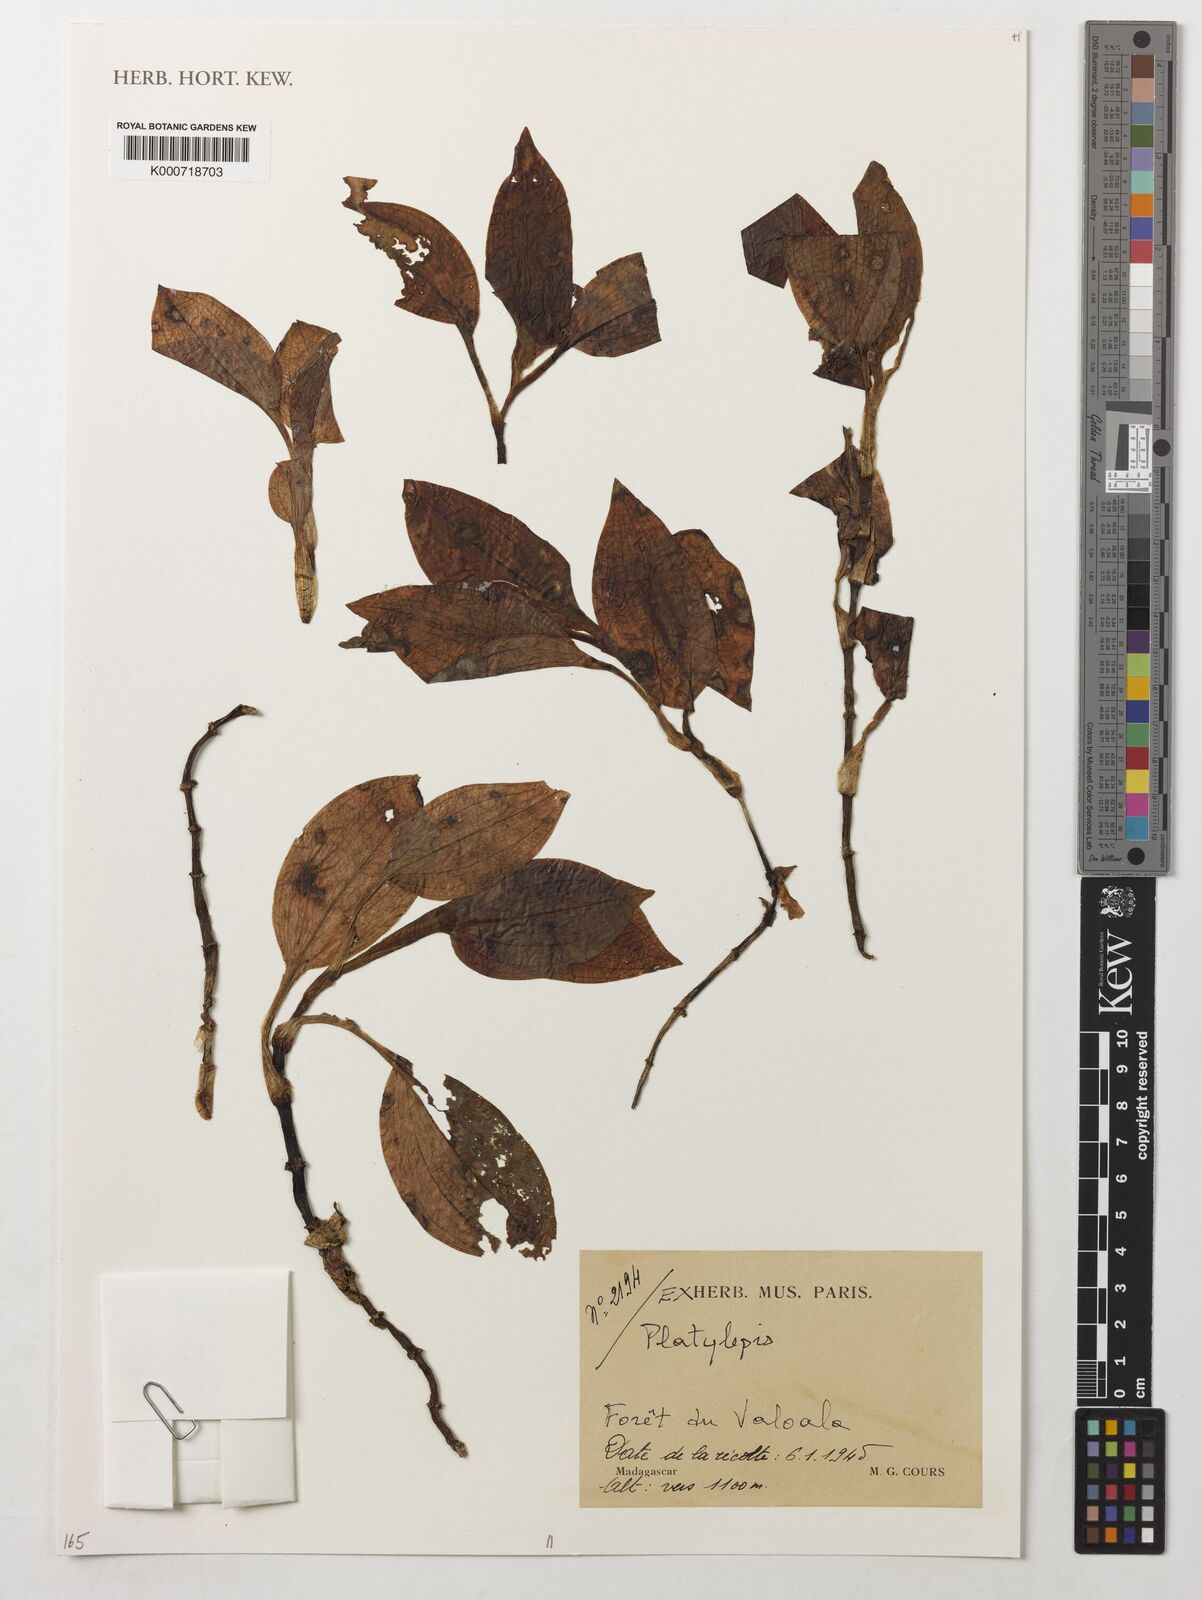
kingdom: Plantae
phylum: Tracheophyta
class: Liliopsida
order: Asparagales
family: Orchidaceae
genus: Platylepis
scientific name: Platylepis
